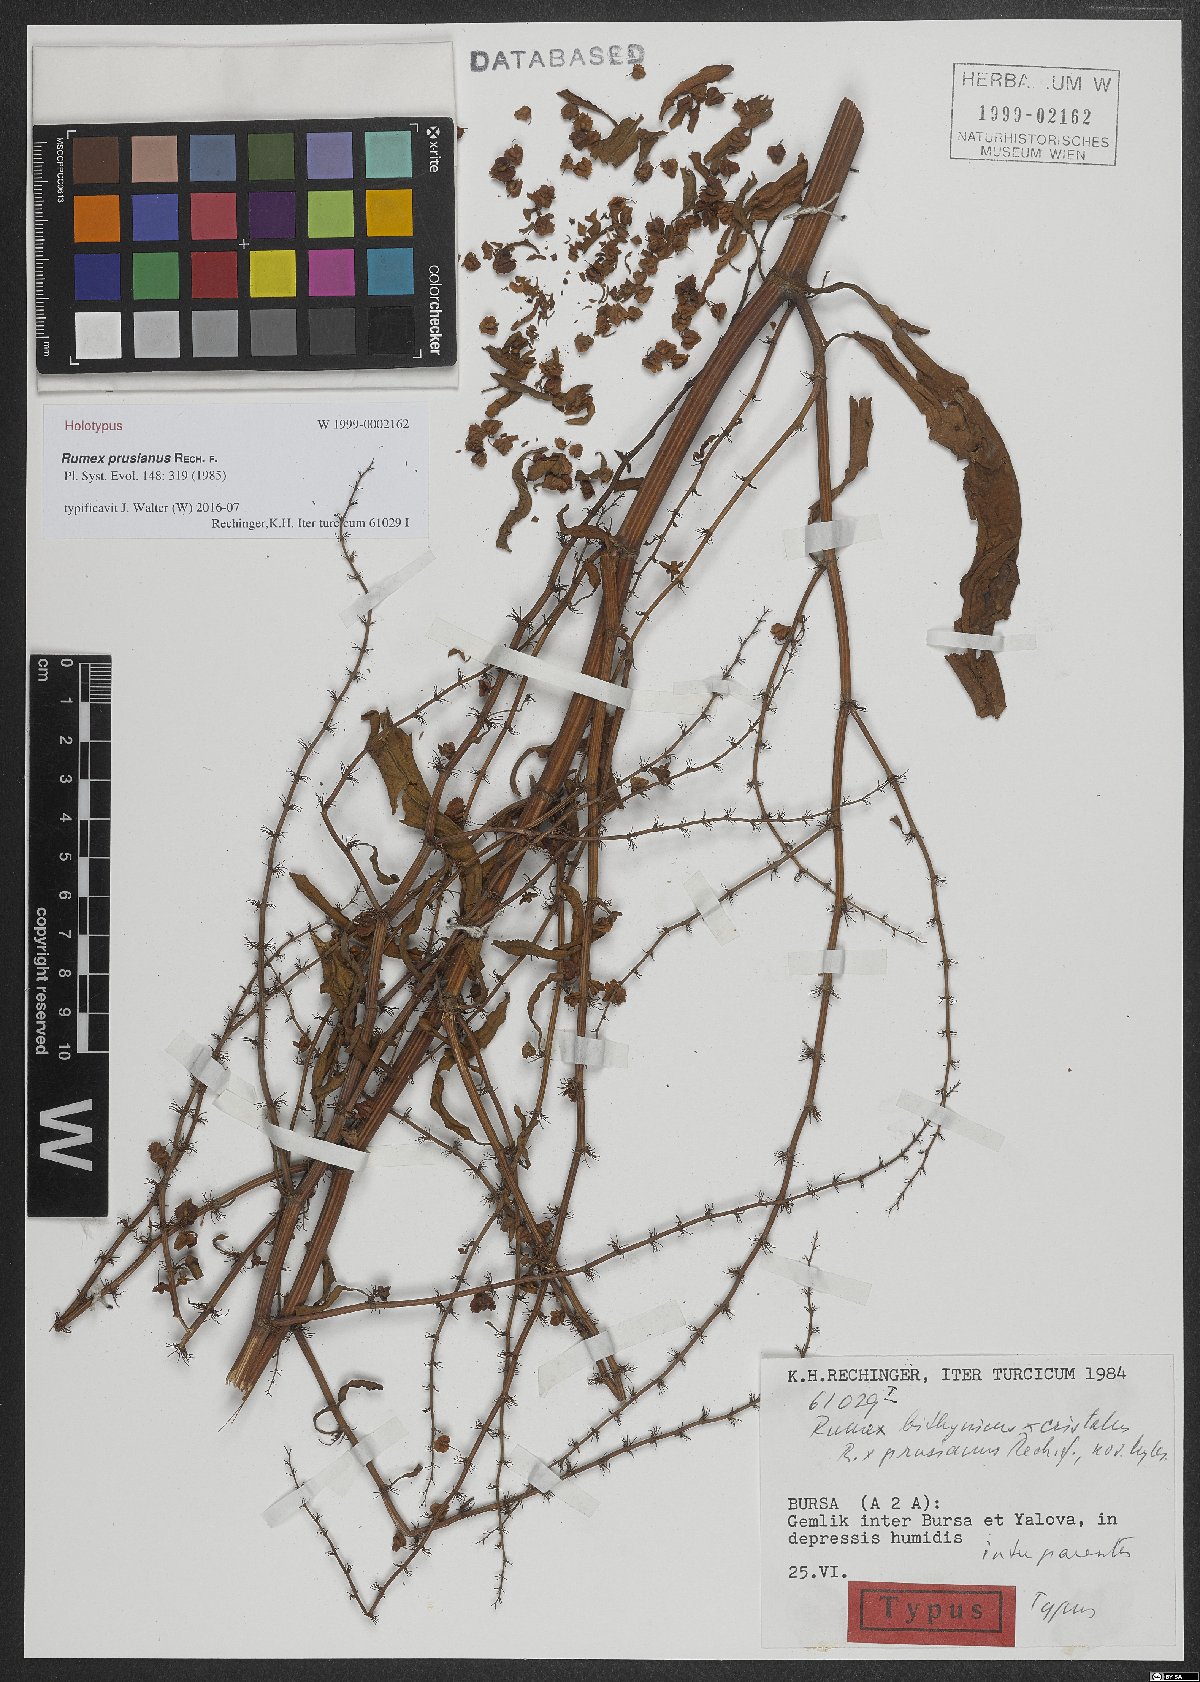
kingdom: Plantae
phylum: Tracheophyta
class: Magnoliopsida
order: Caryophyllales
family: Polygonaceae
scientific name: Polygonaceae
